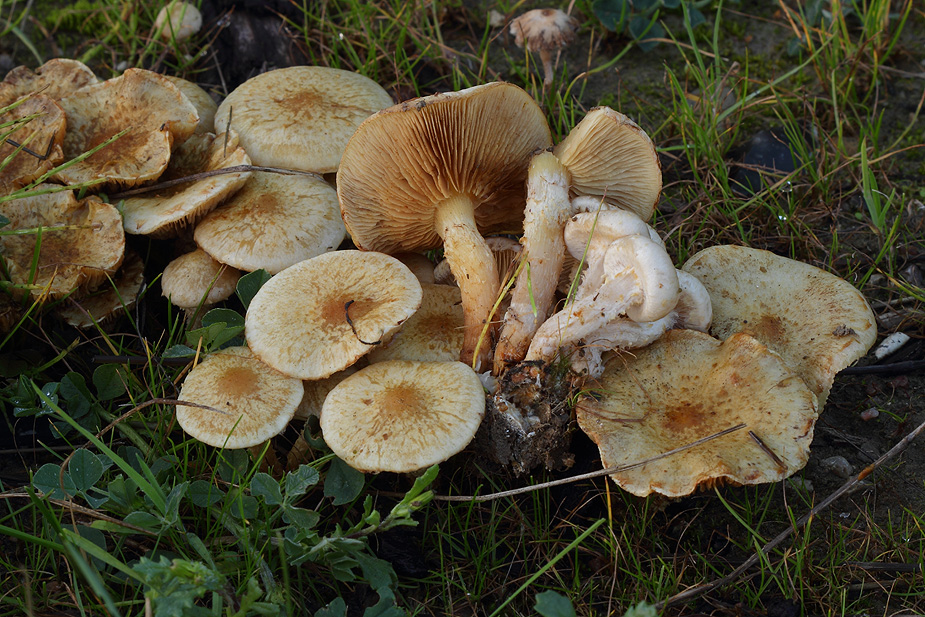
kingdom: Fungi
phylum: Basidiomycota
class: Agaricomycetes
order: Agaricales
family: Strophariaceae
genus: Pholiota
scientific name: Pholiota gummosa
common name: grøngul skælhat
